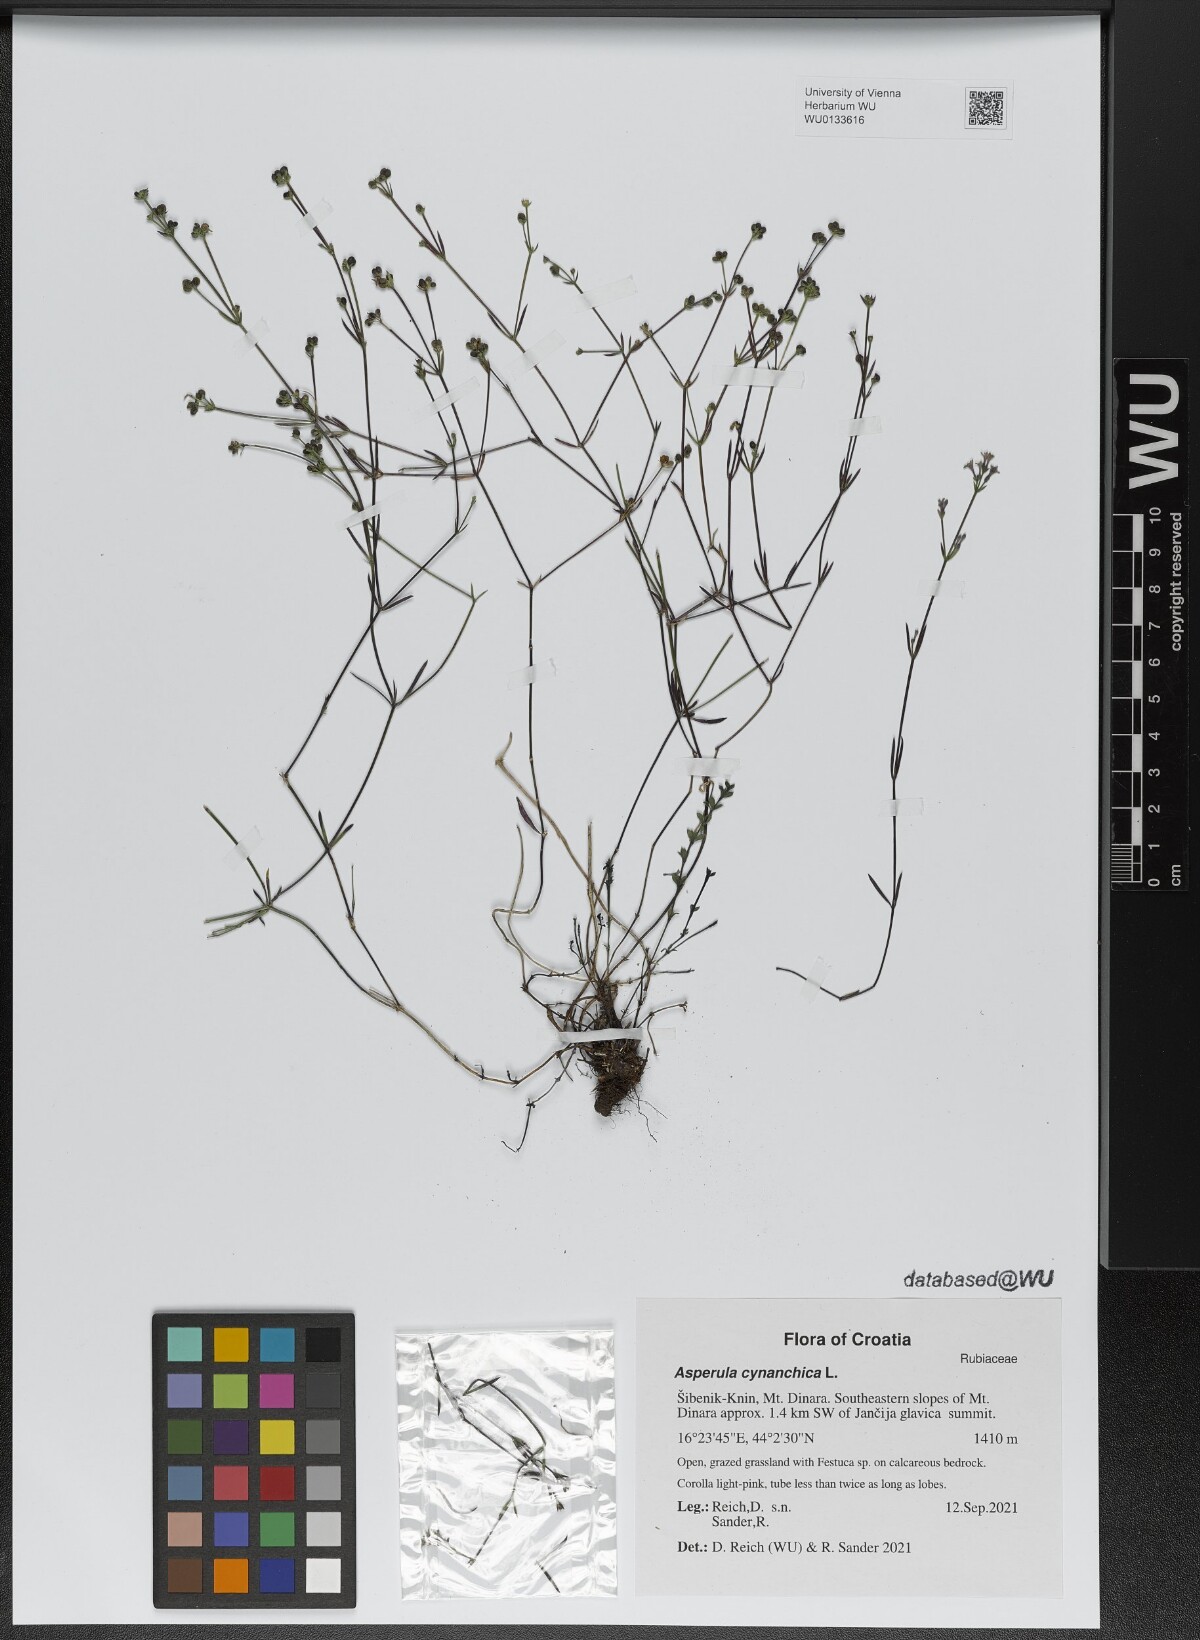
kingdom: Plantae
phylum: Tracheophyta
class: Magnoliopsida
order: Gentianales
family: Rubiaceae
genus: Cynanchica
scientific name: Cynanchica pyrenaica
